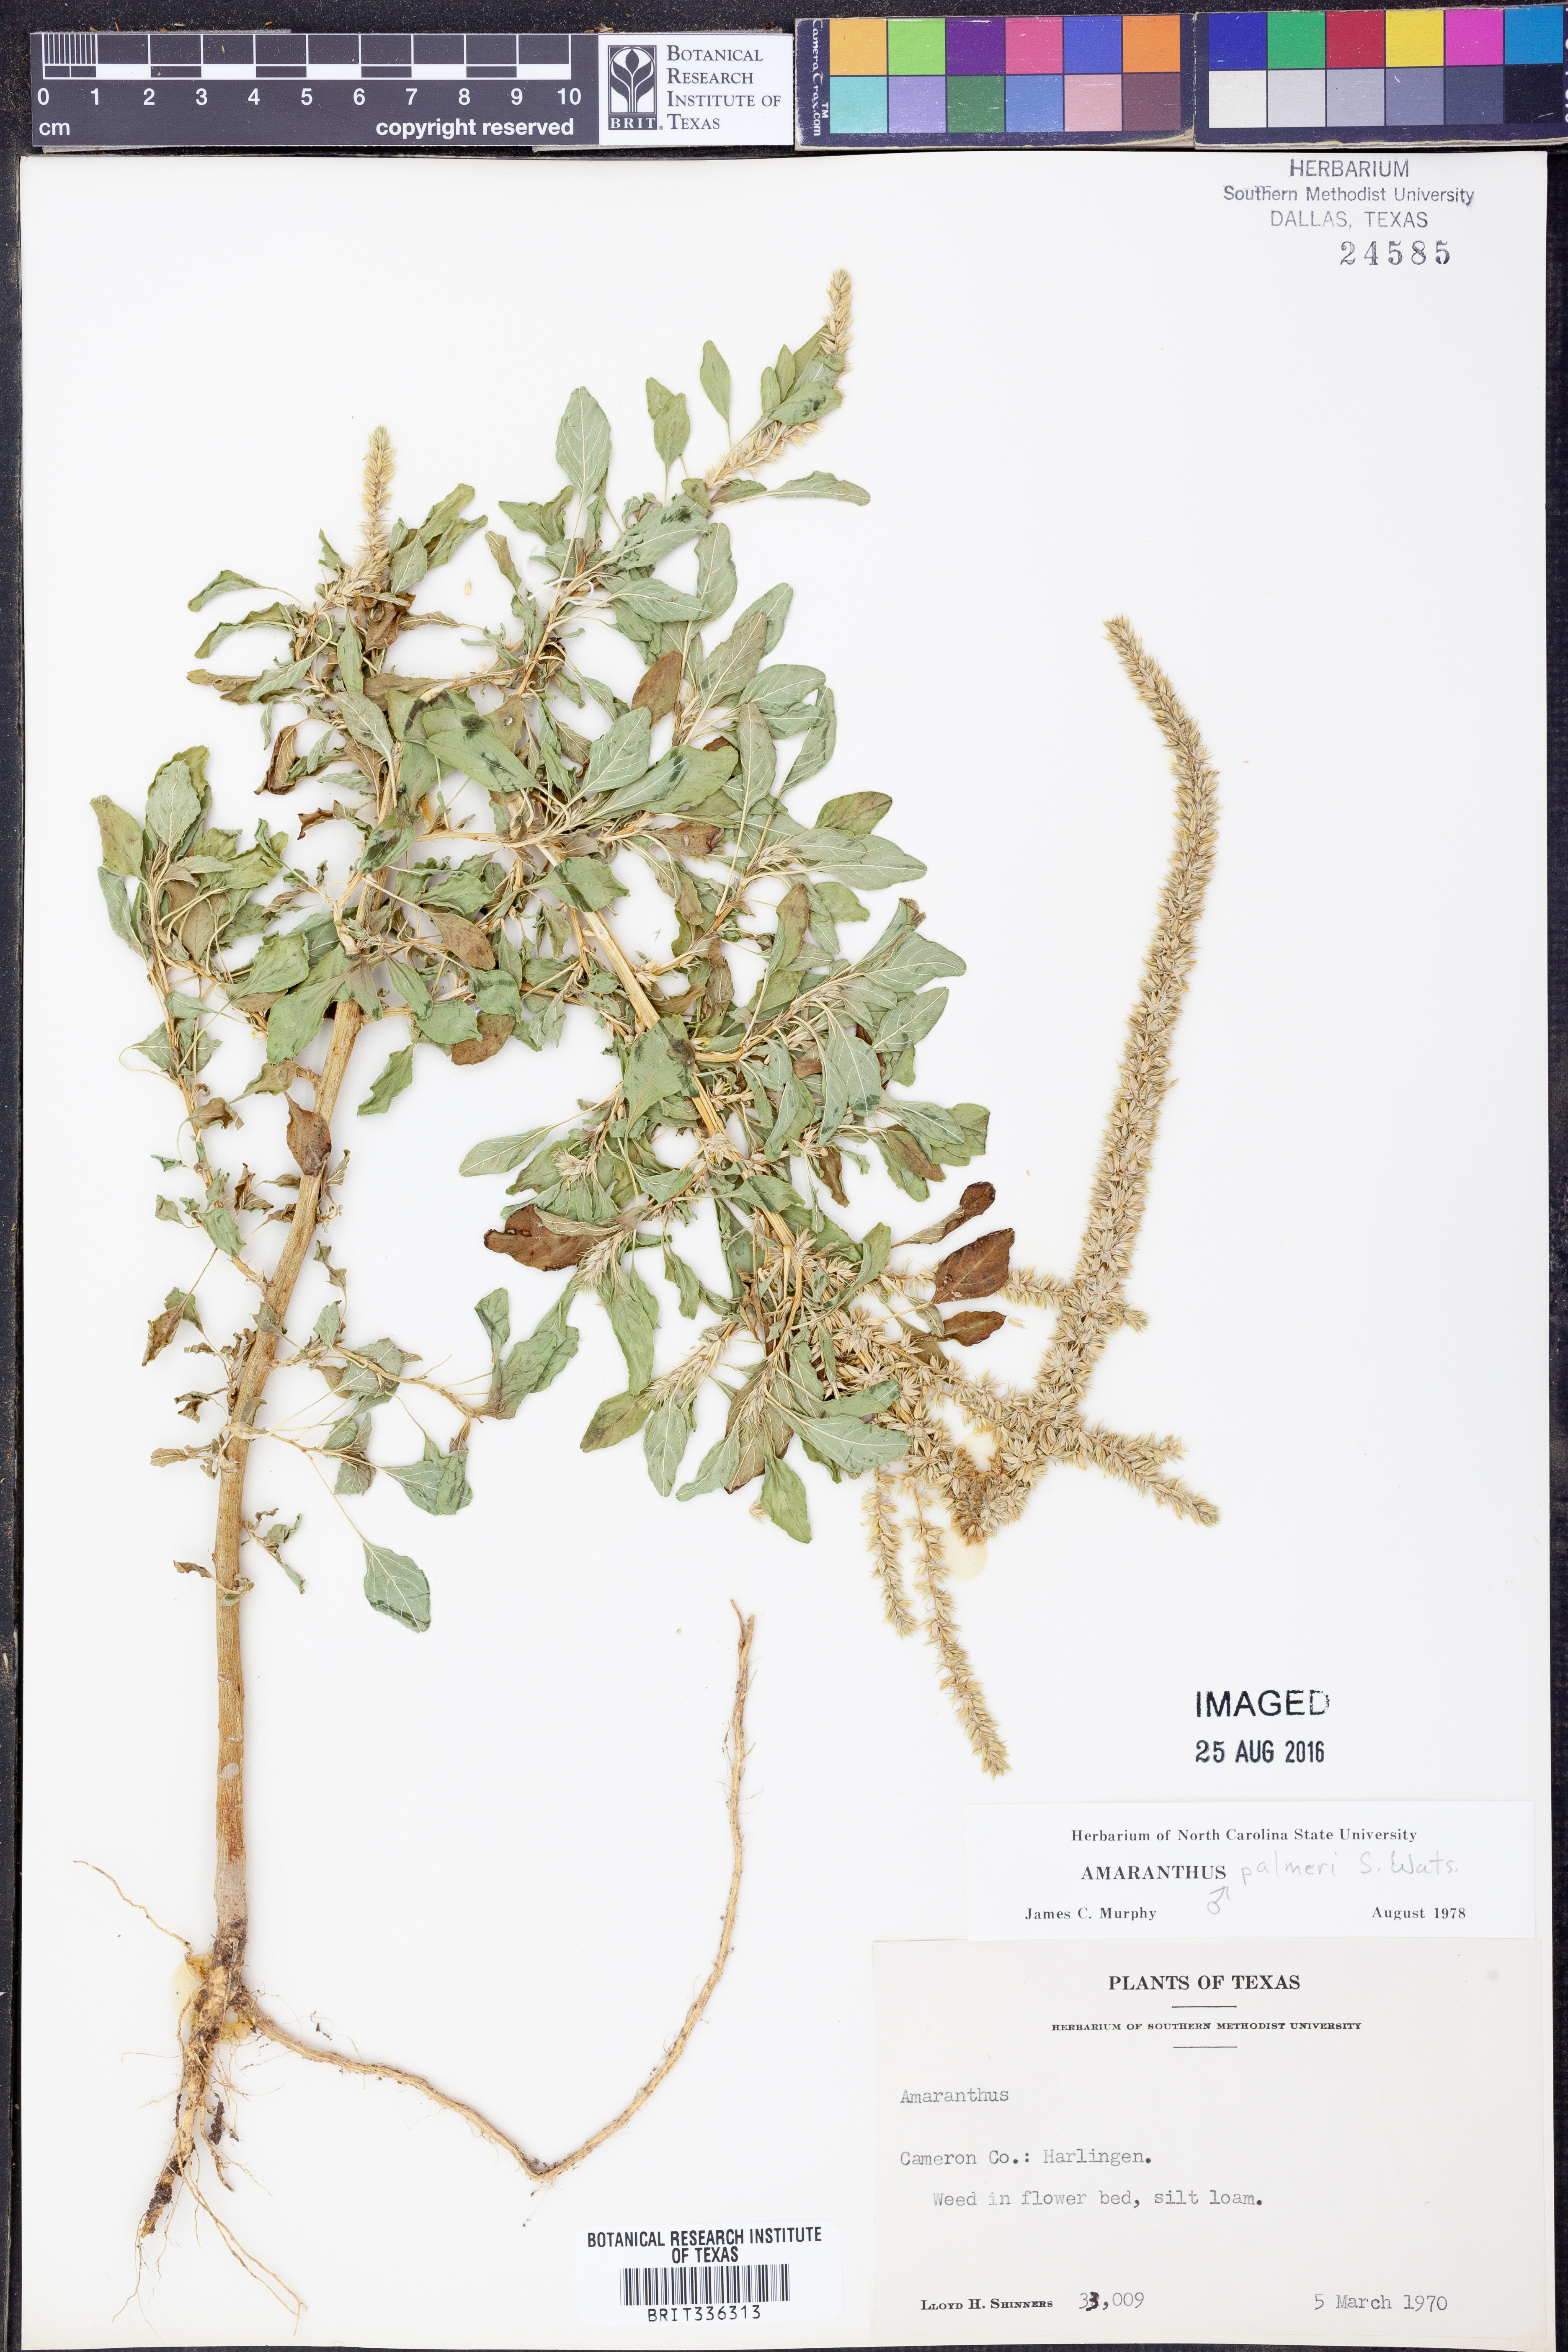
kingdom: Plantae
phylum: Tracheophyta
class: Magnoliopsida
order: Caryophyllales
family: Amaranthaceae
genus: Amaranthus
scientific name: Amaranthus palmeri
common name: Dioecious amaranth
